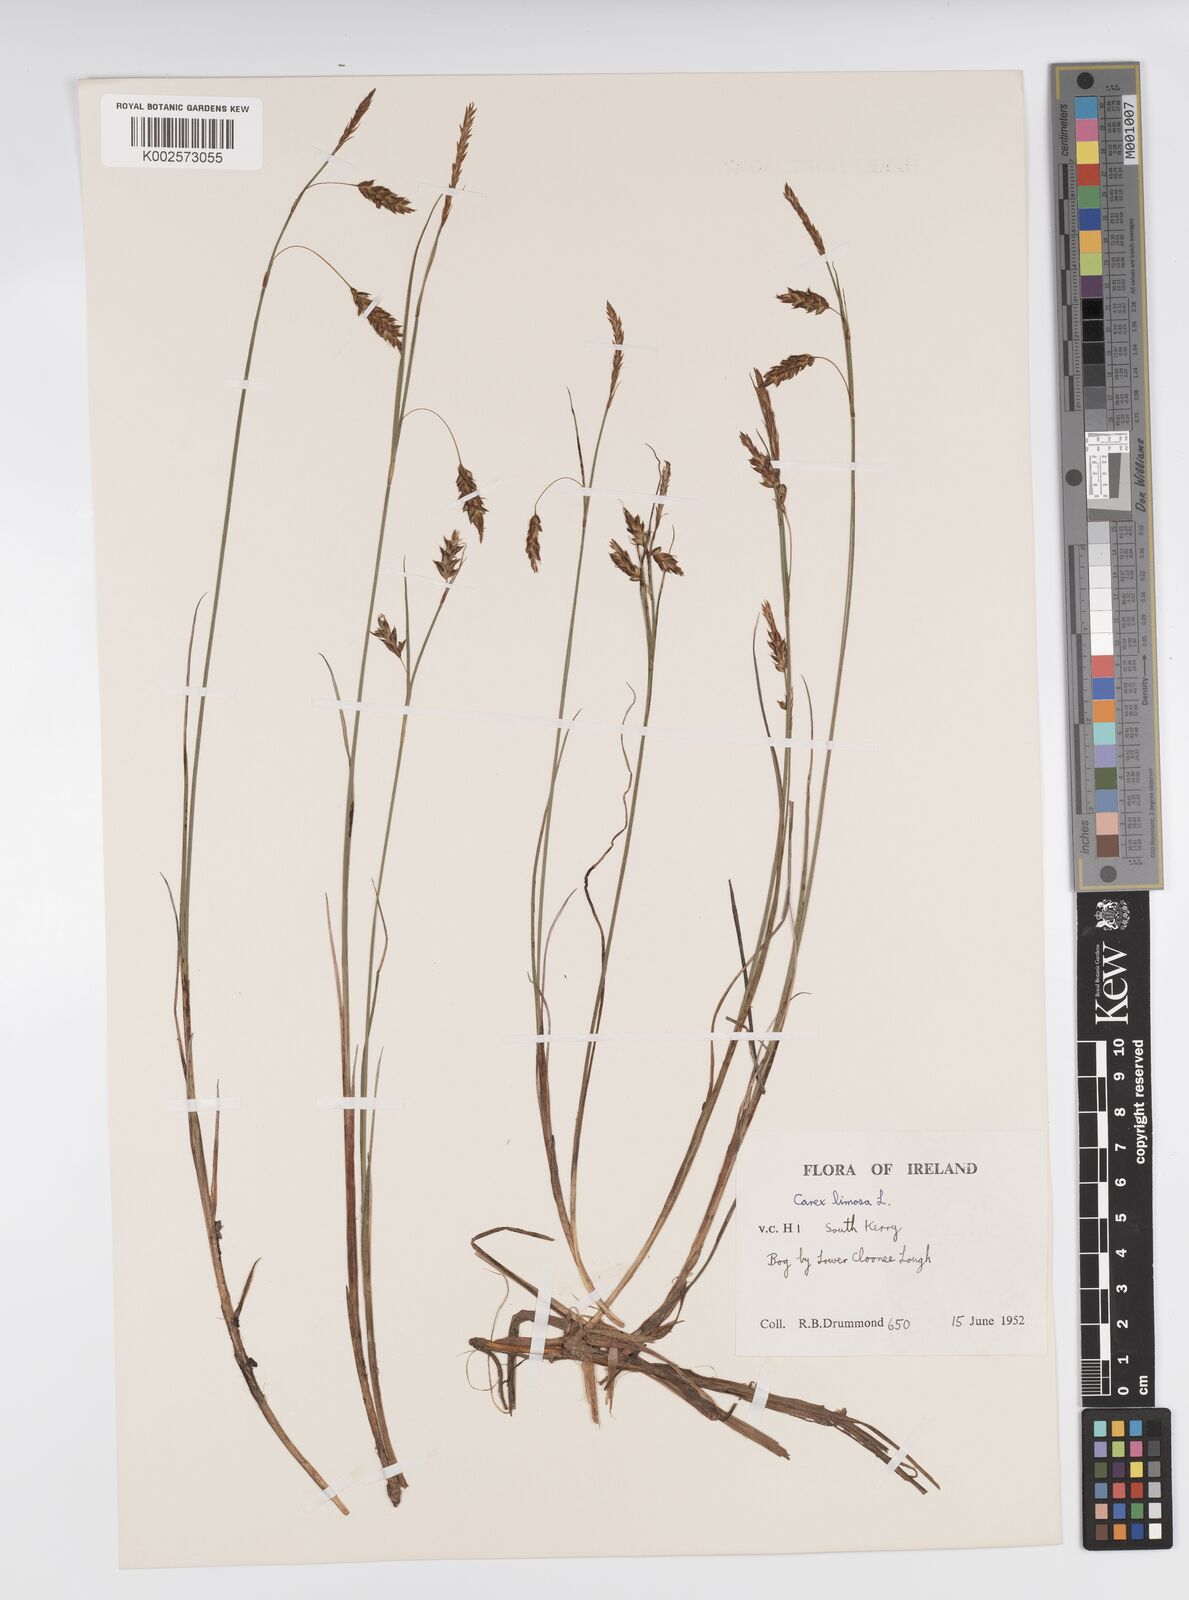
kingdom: Plantae
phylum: Tracheophyta
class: Liliopsida
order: Poales
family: Cyperaceae
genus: Carex
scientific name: Carex limosa
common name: Bog sedge
